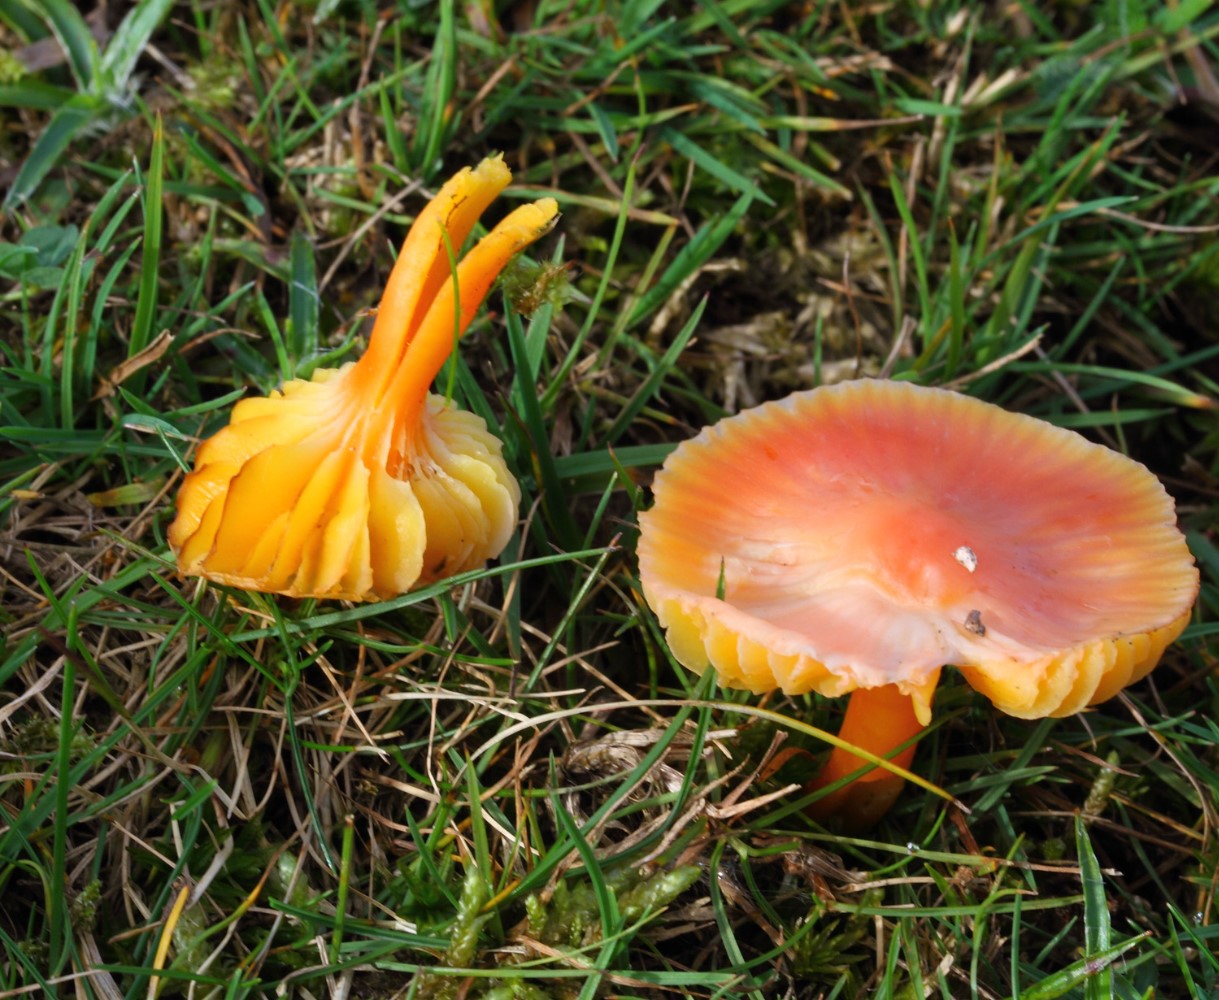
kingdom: Fungi
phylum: Basidiomycota
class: Agaricomycetes
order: Agaricales
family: Hygrophoraceae
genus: Hygrocybe
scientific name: Hygrocybe
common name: vokshat
